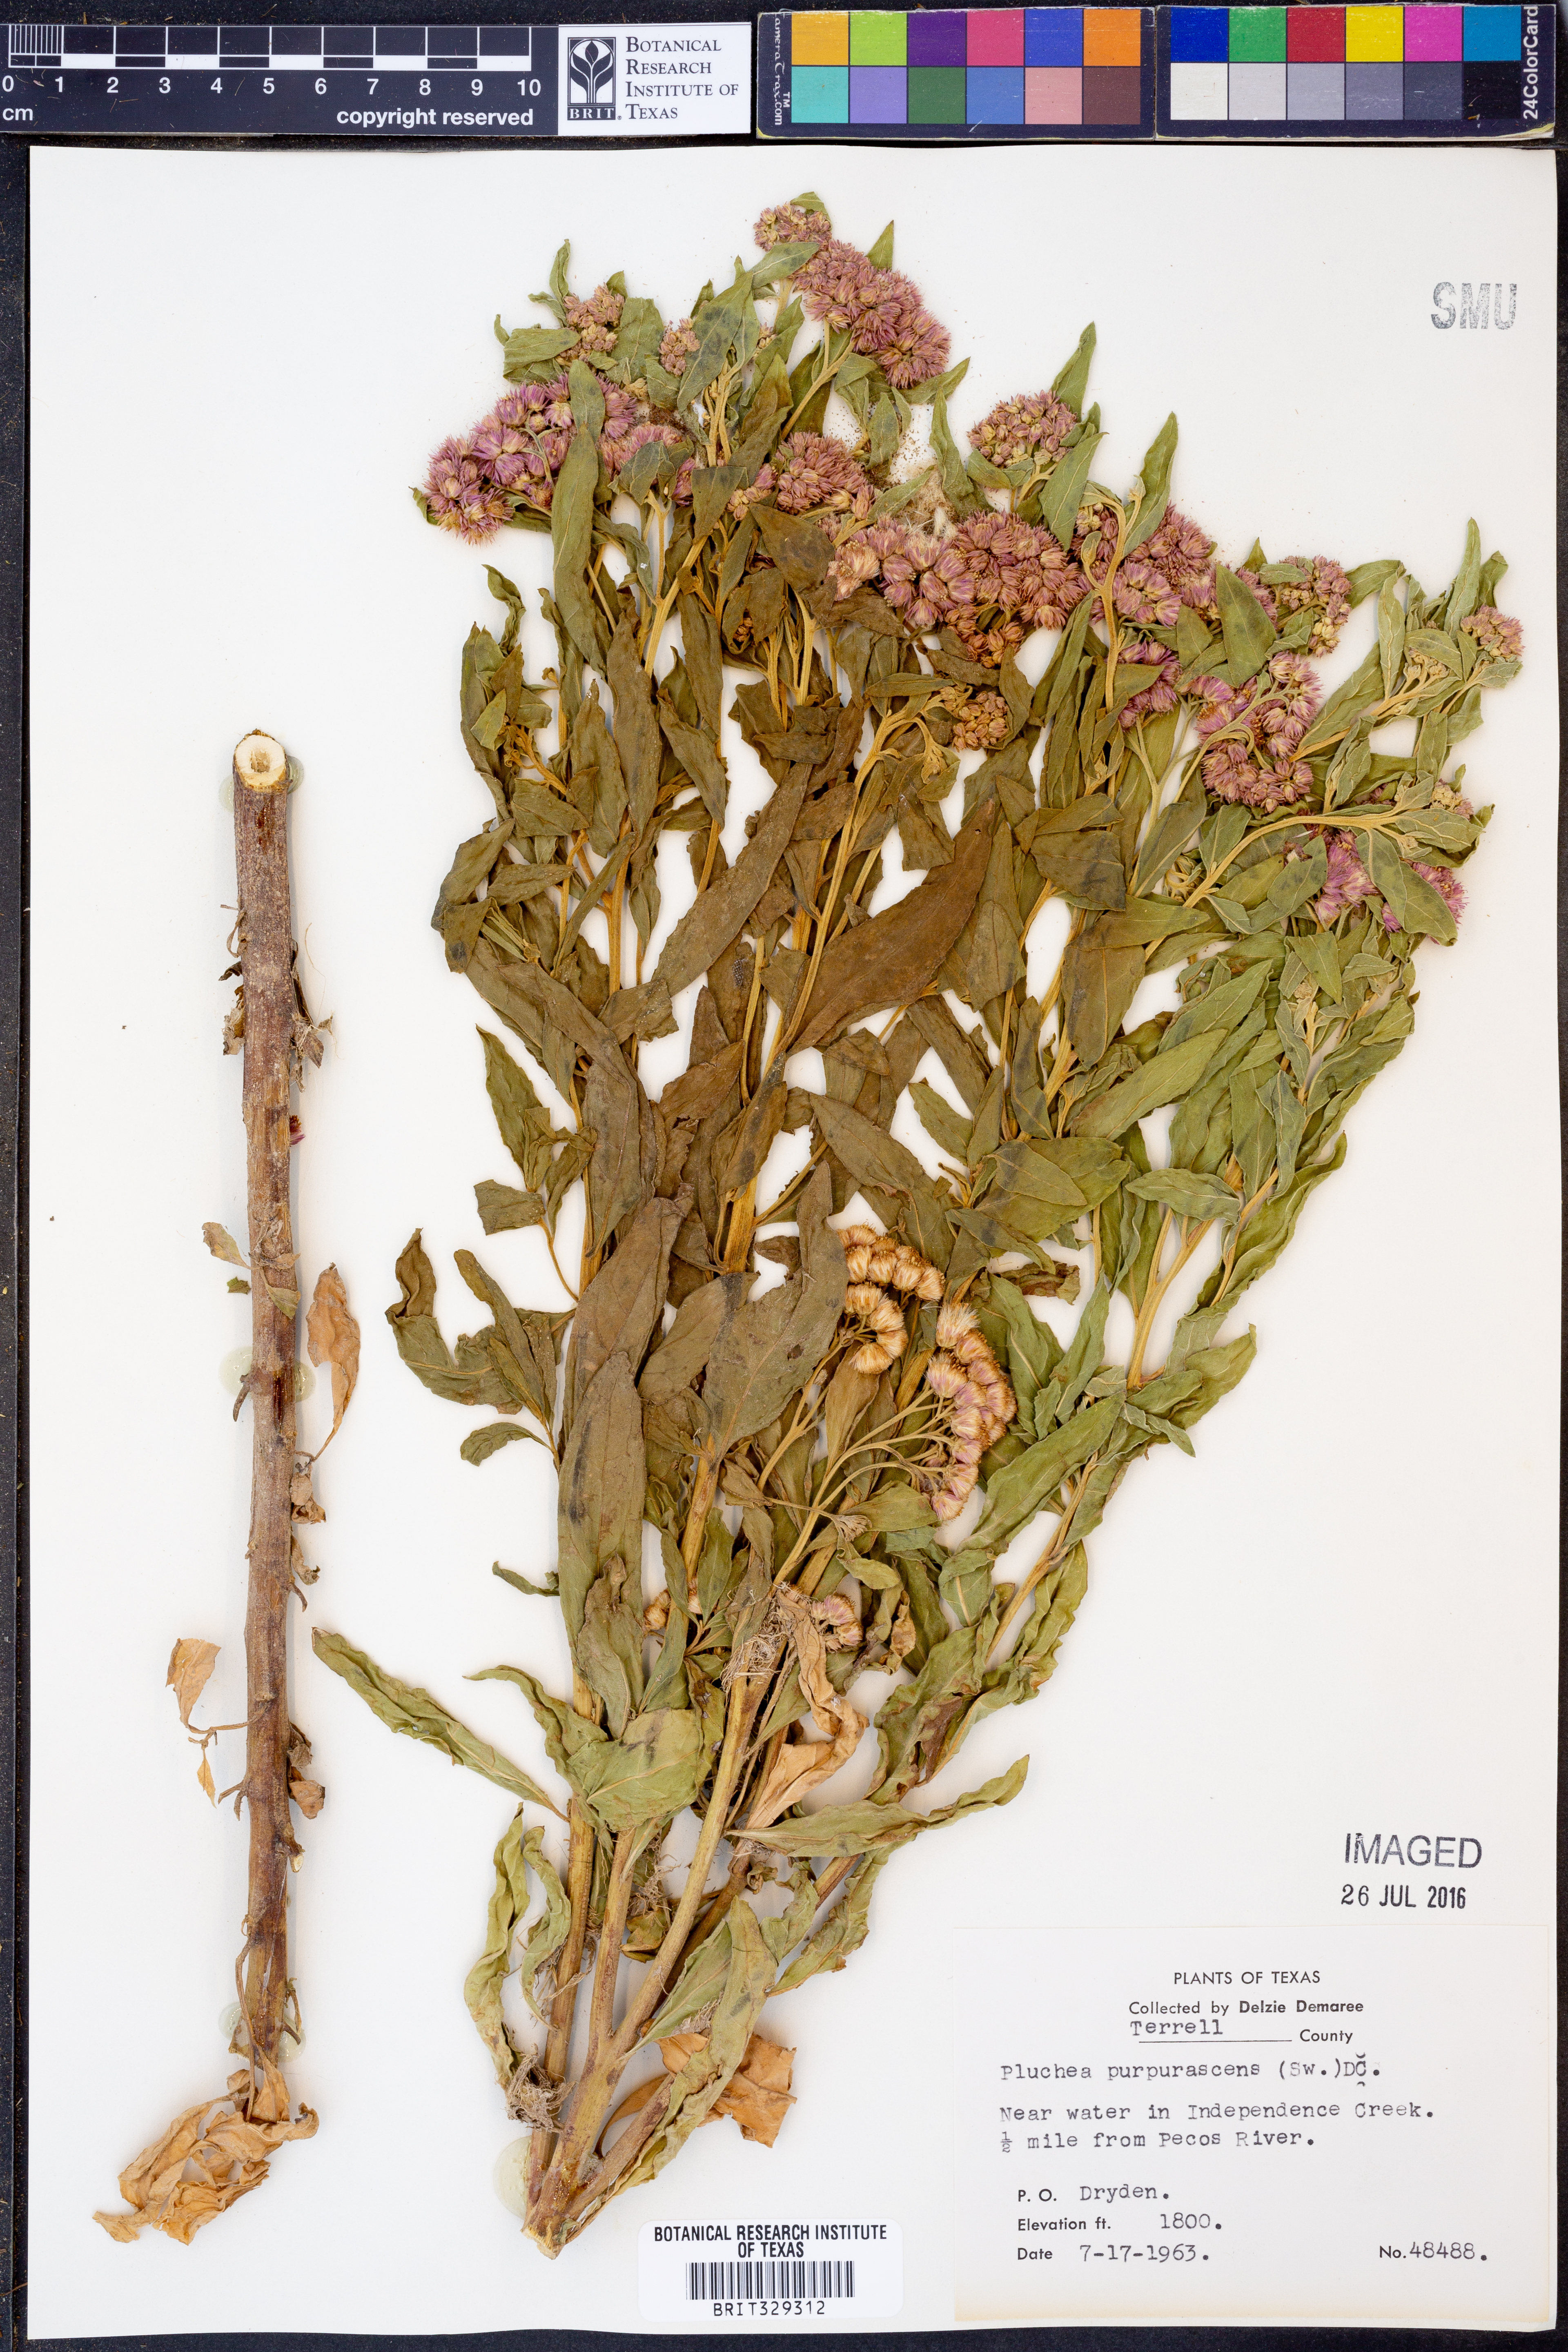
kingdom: Plantae
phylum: Tracheophyta
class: Magnoliopsida
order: Asterales
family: Asteraceae
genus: Pluchea
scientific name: Pluchea odorata
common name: Saltmarsh fleabane
